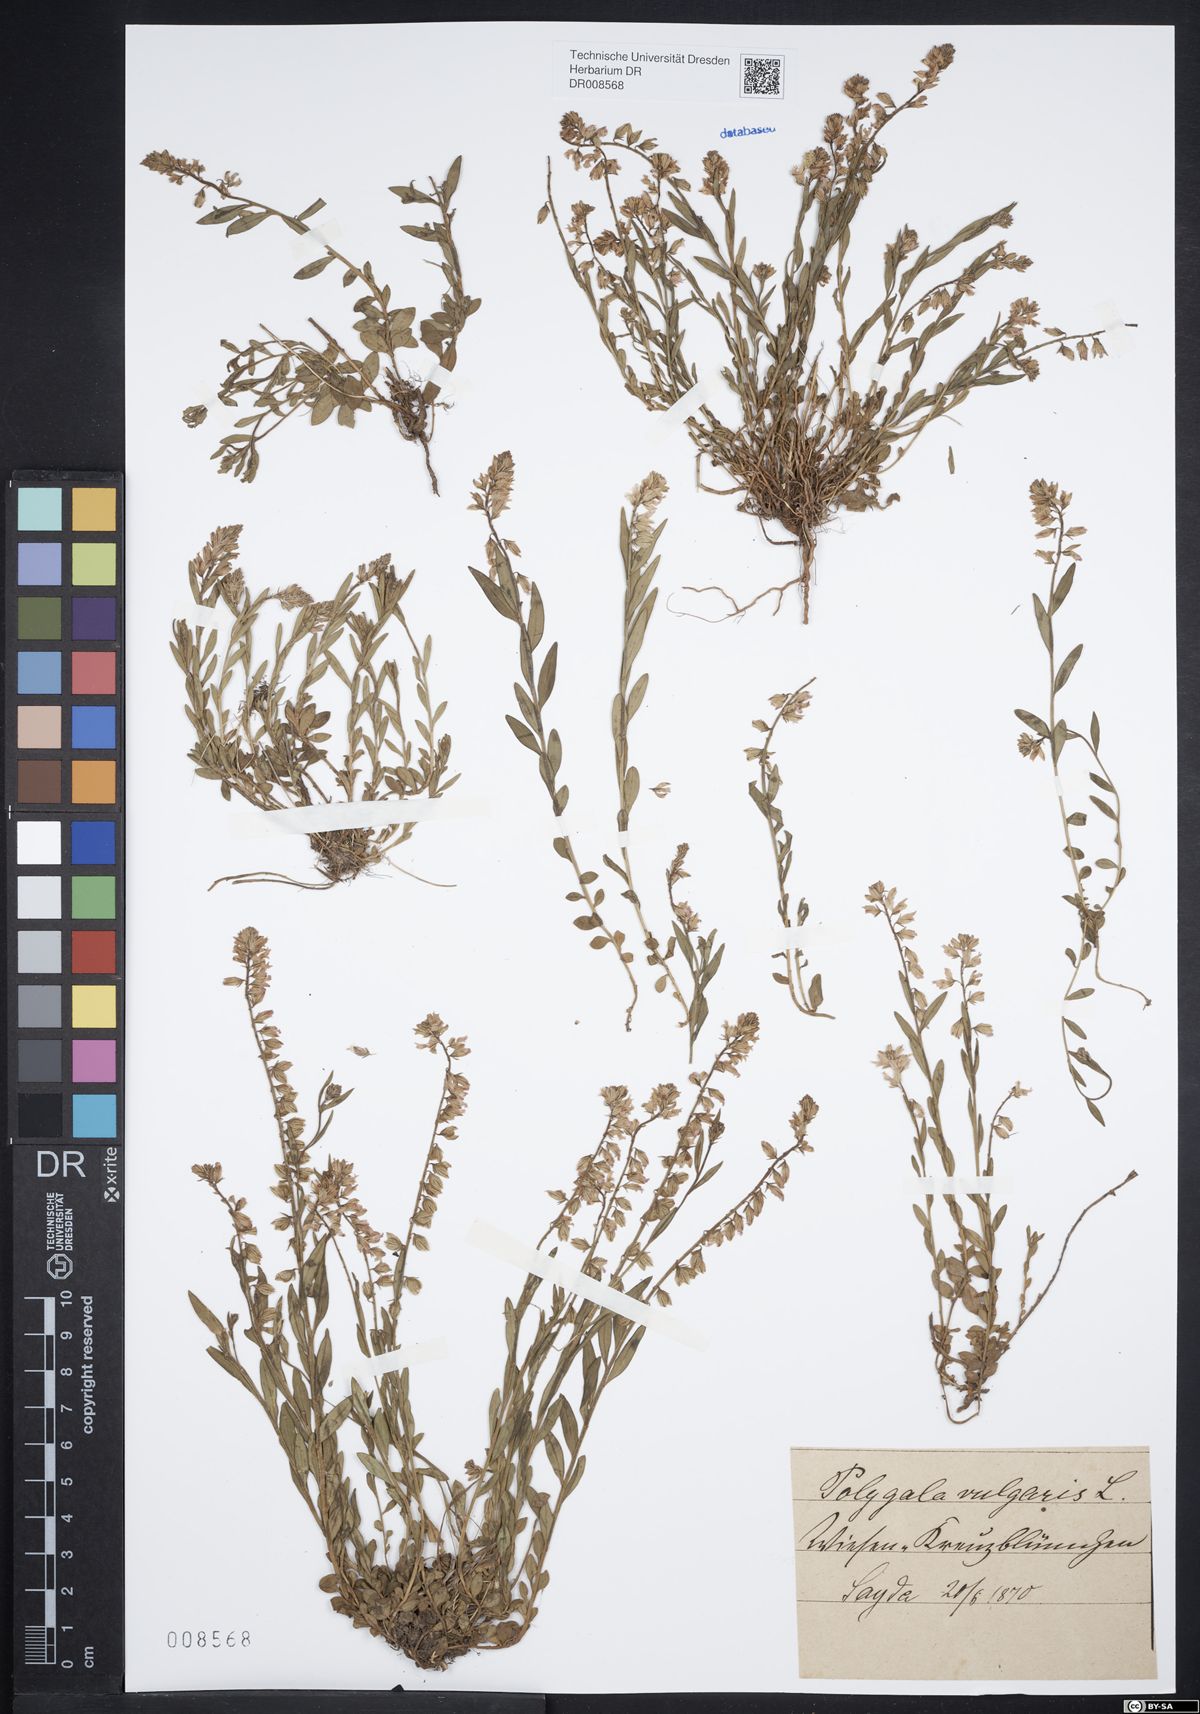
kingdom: Plantae
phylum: Tracheophyta
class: Magnoliopsida
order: Fabales
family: Polygalaceae
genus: Polygala
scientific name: Polygala vulgaris
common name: Common milkwort
